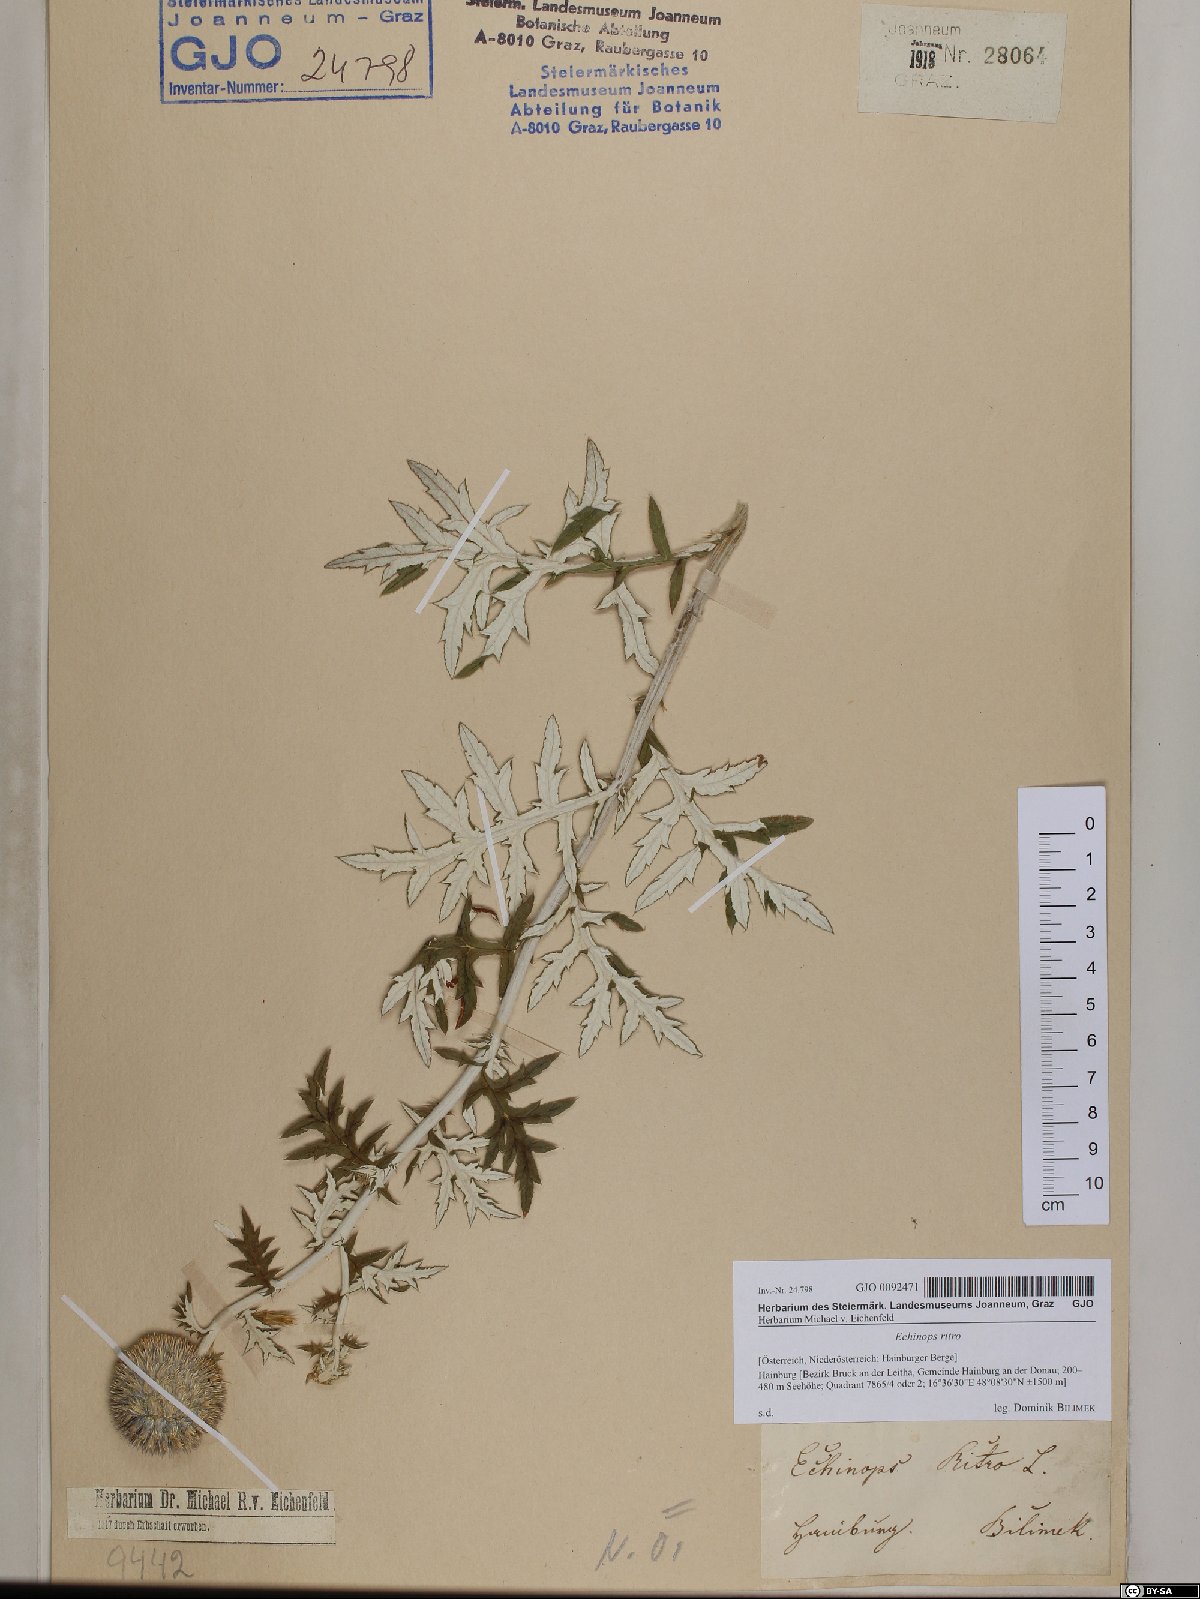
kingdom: Plantae
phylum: Tracheophyta
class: Magnoliopsida
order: Asterales
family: Asteraceae
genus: Echinops
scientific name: Echinops ritro
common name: Globe thistle
